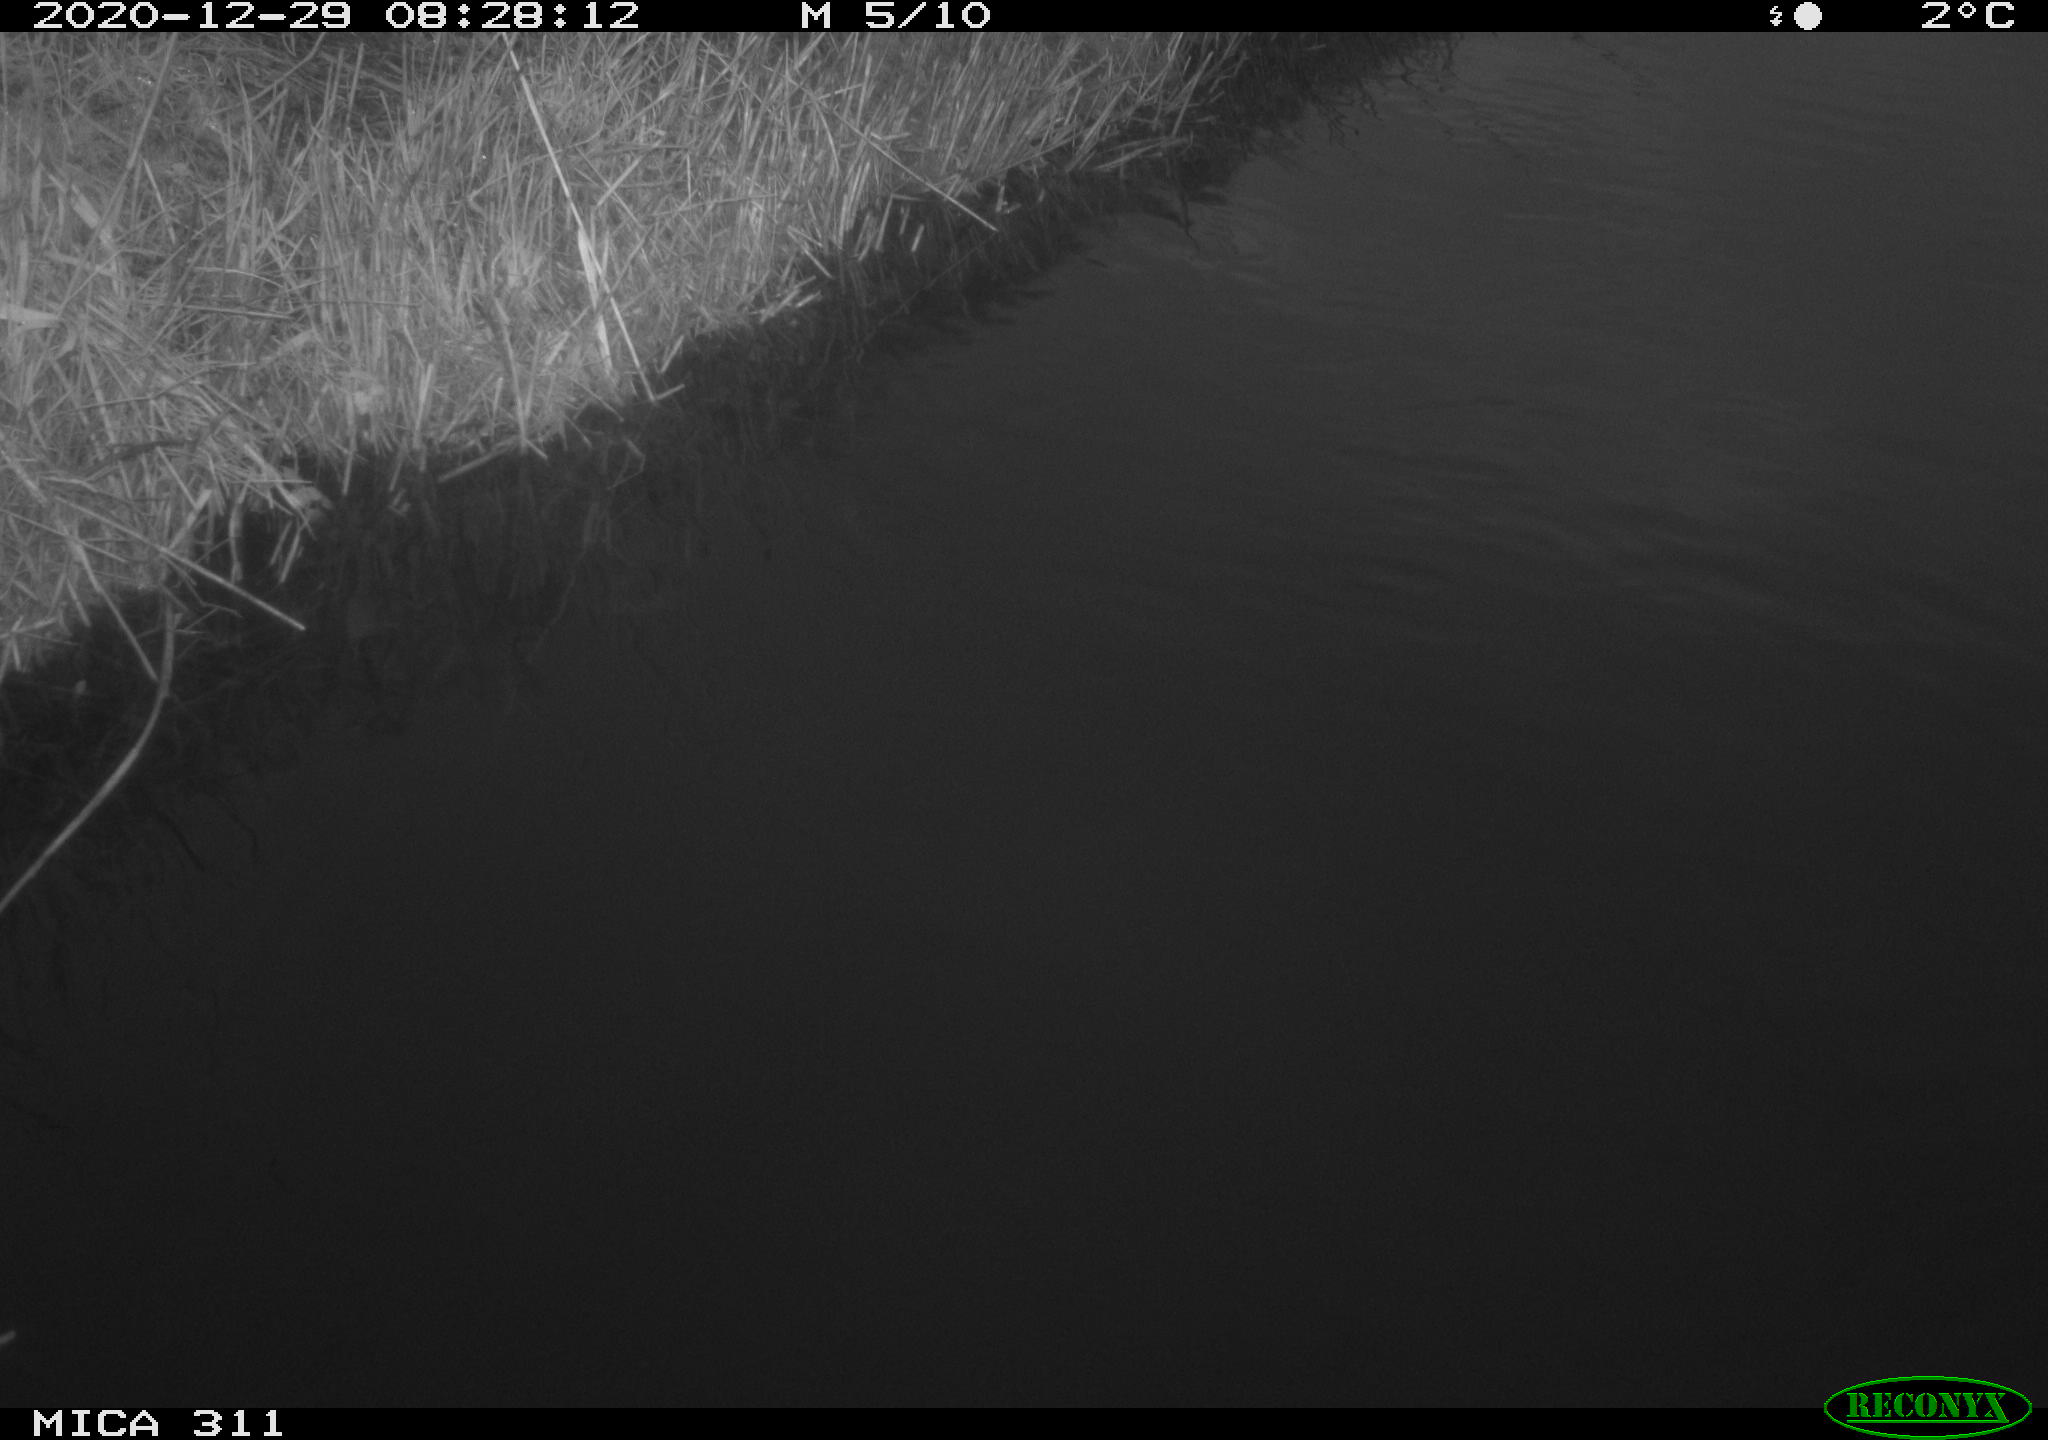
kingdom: Animalia
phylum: Chordata
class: Aves
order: Gruiformes
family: Rallidae
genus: Gallinula
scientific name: Gallinula chloropus
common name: Common moorhen
